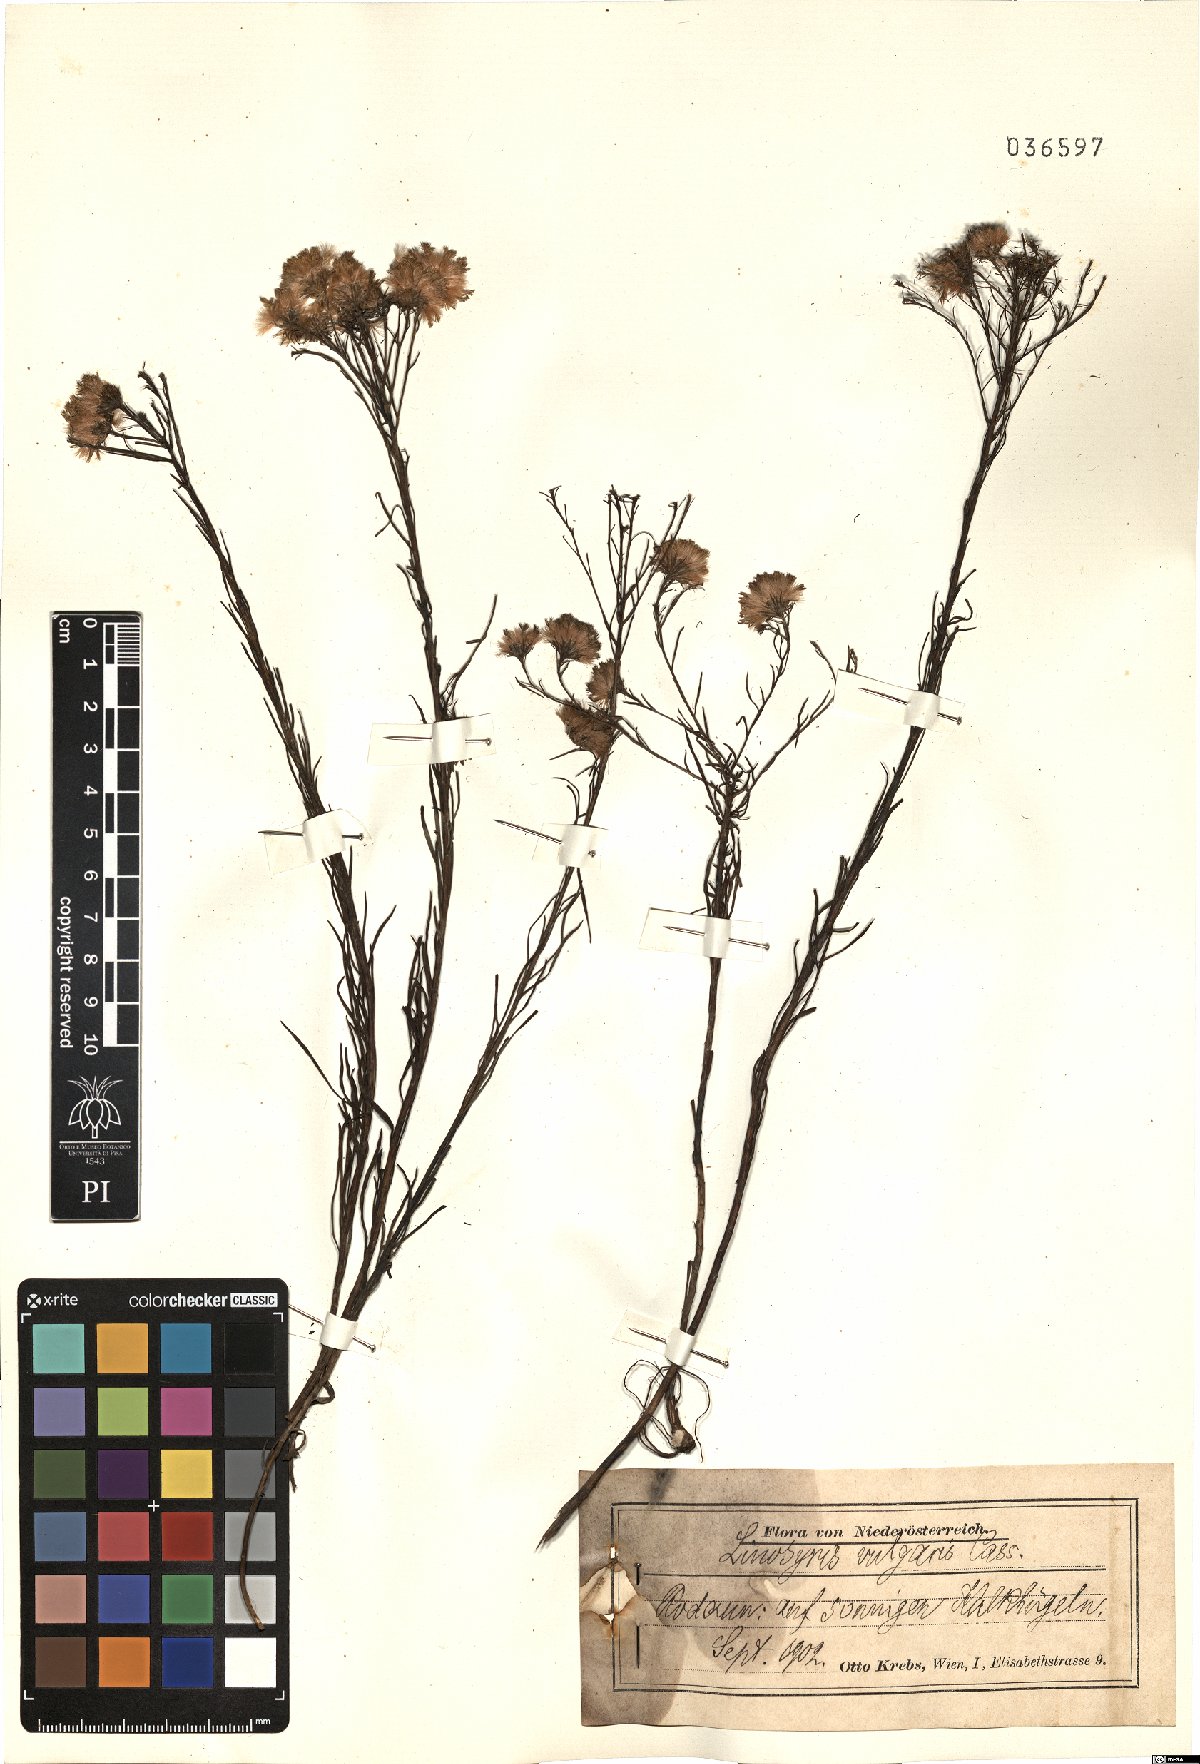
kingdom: Plantae
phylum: Tracheophyta
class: Magnoliopsida
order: Asterales
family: Asteraceae
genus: Galatella
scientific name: Galatella linosyris
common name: Goldilocks aster
